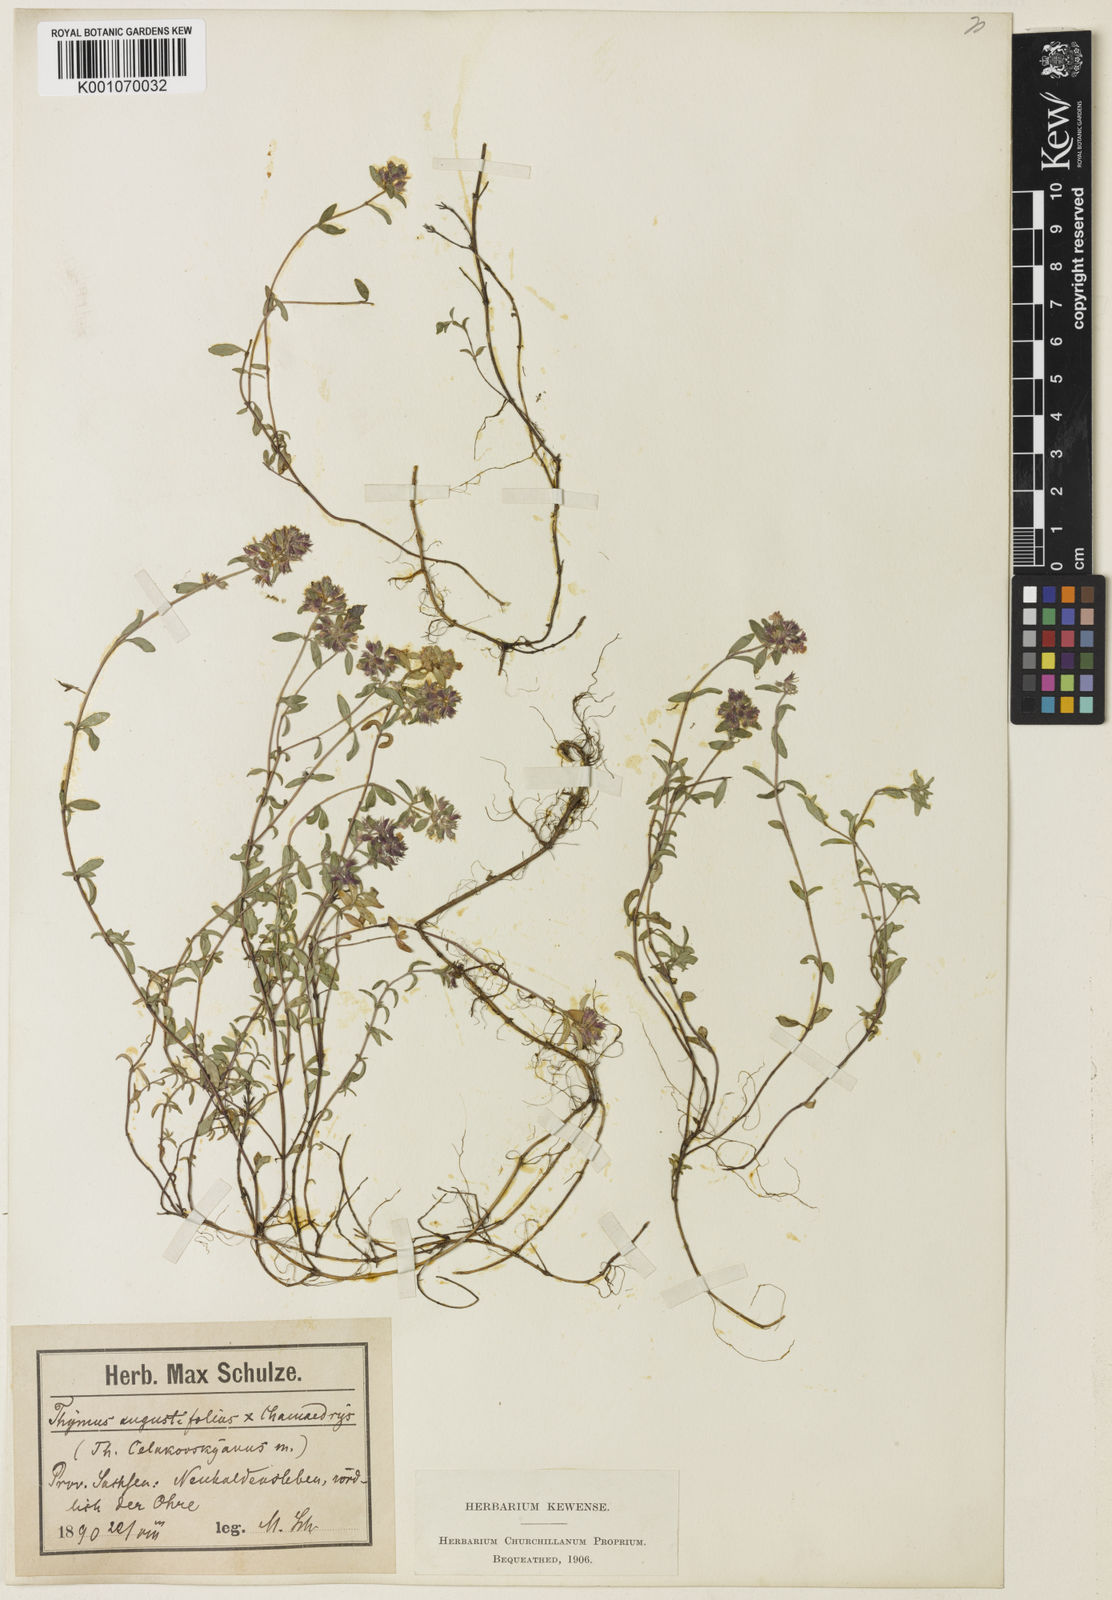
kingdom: Plantae
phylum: Tracheophyta
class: Magnoliopsida
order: Lamiales
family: Lamiaceae
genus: Thymus
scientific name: Thymus serpyllum
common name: Breckland thyme
